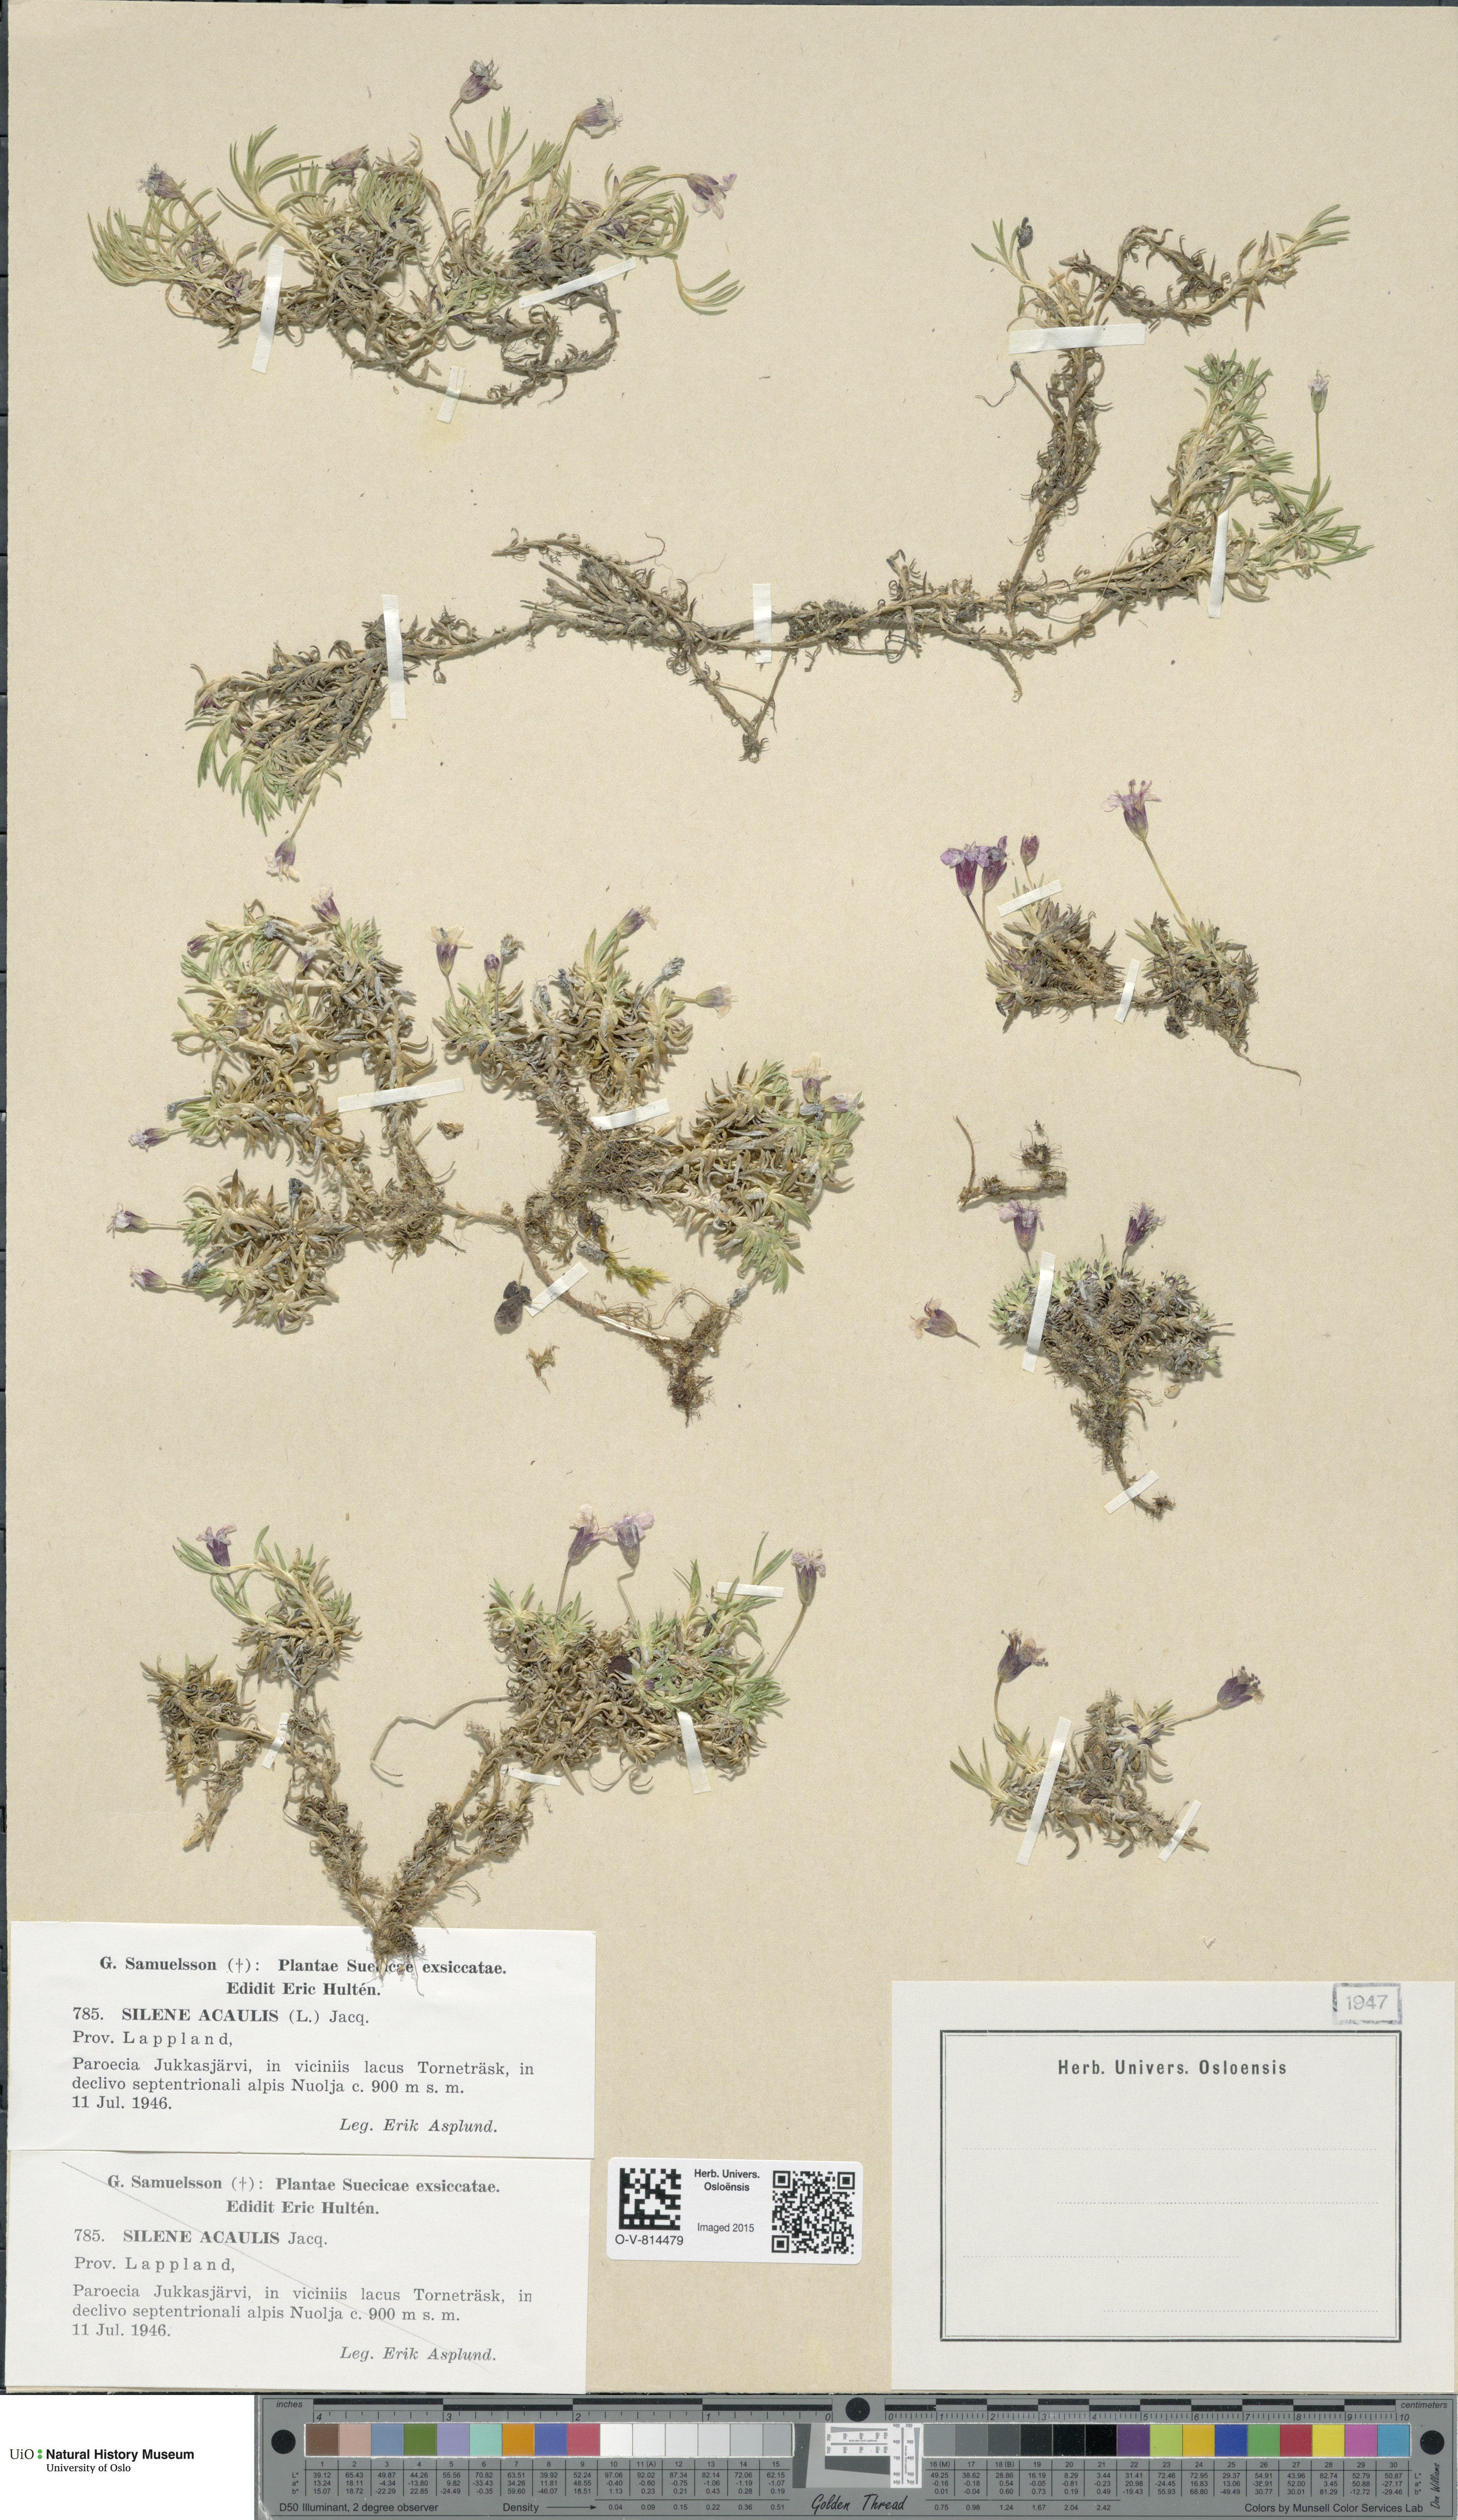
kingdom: Plantae
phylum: Tracheophyta
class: Magnoliopsida
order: Caryophyllales
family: Caryophyllaceae
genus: Silene
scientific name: Silene acaulis
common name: Moss campion
